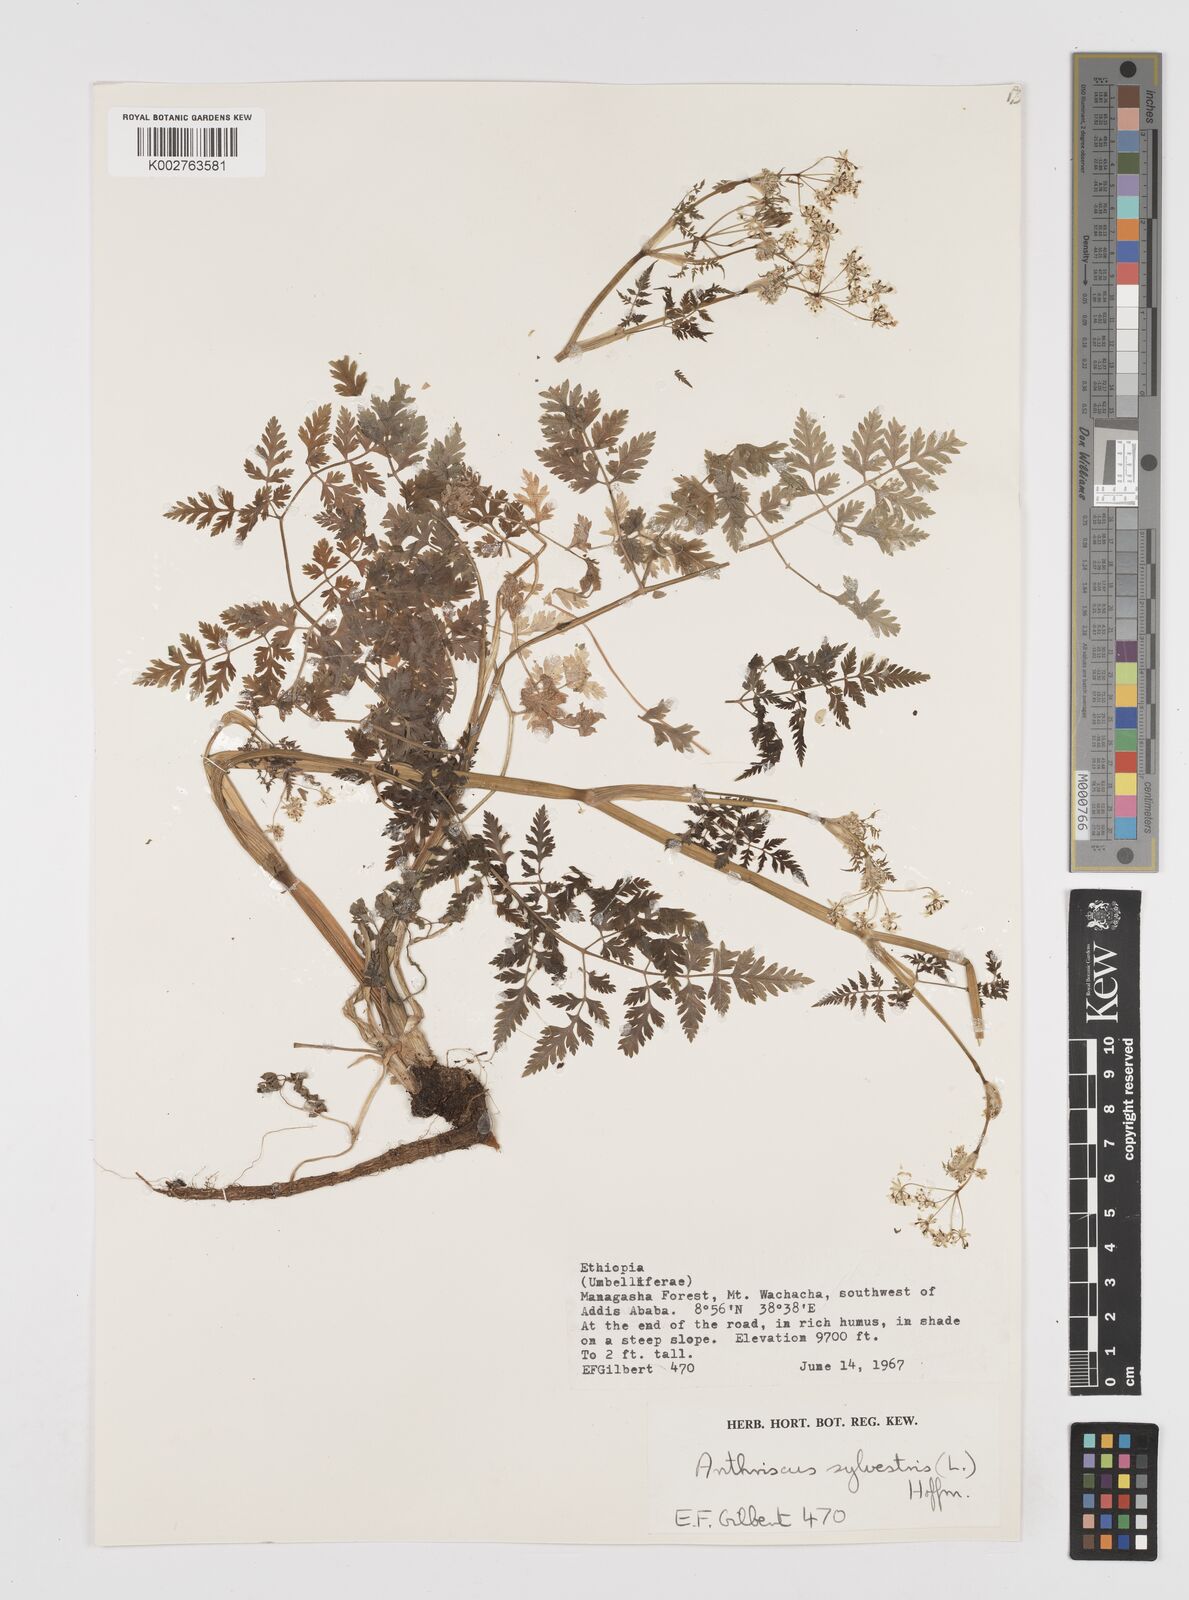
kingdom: Plantae
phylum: Tracheophyta
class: Magnoliopsida
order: Apiales
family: Apiaceae
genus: Anthriscus
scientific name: Anthriscus sylvestris
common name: Cow parsley
